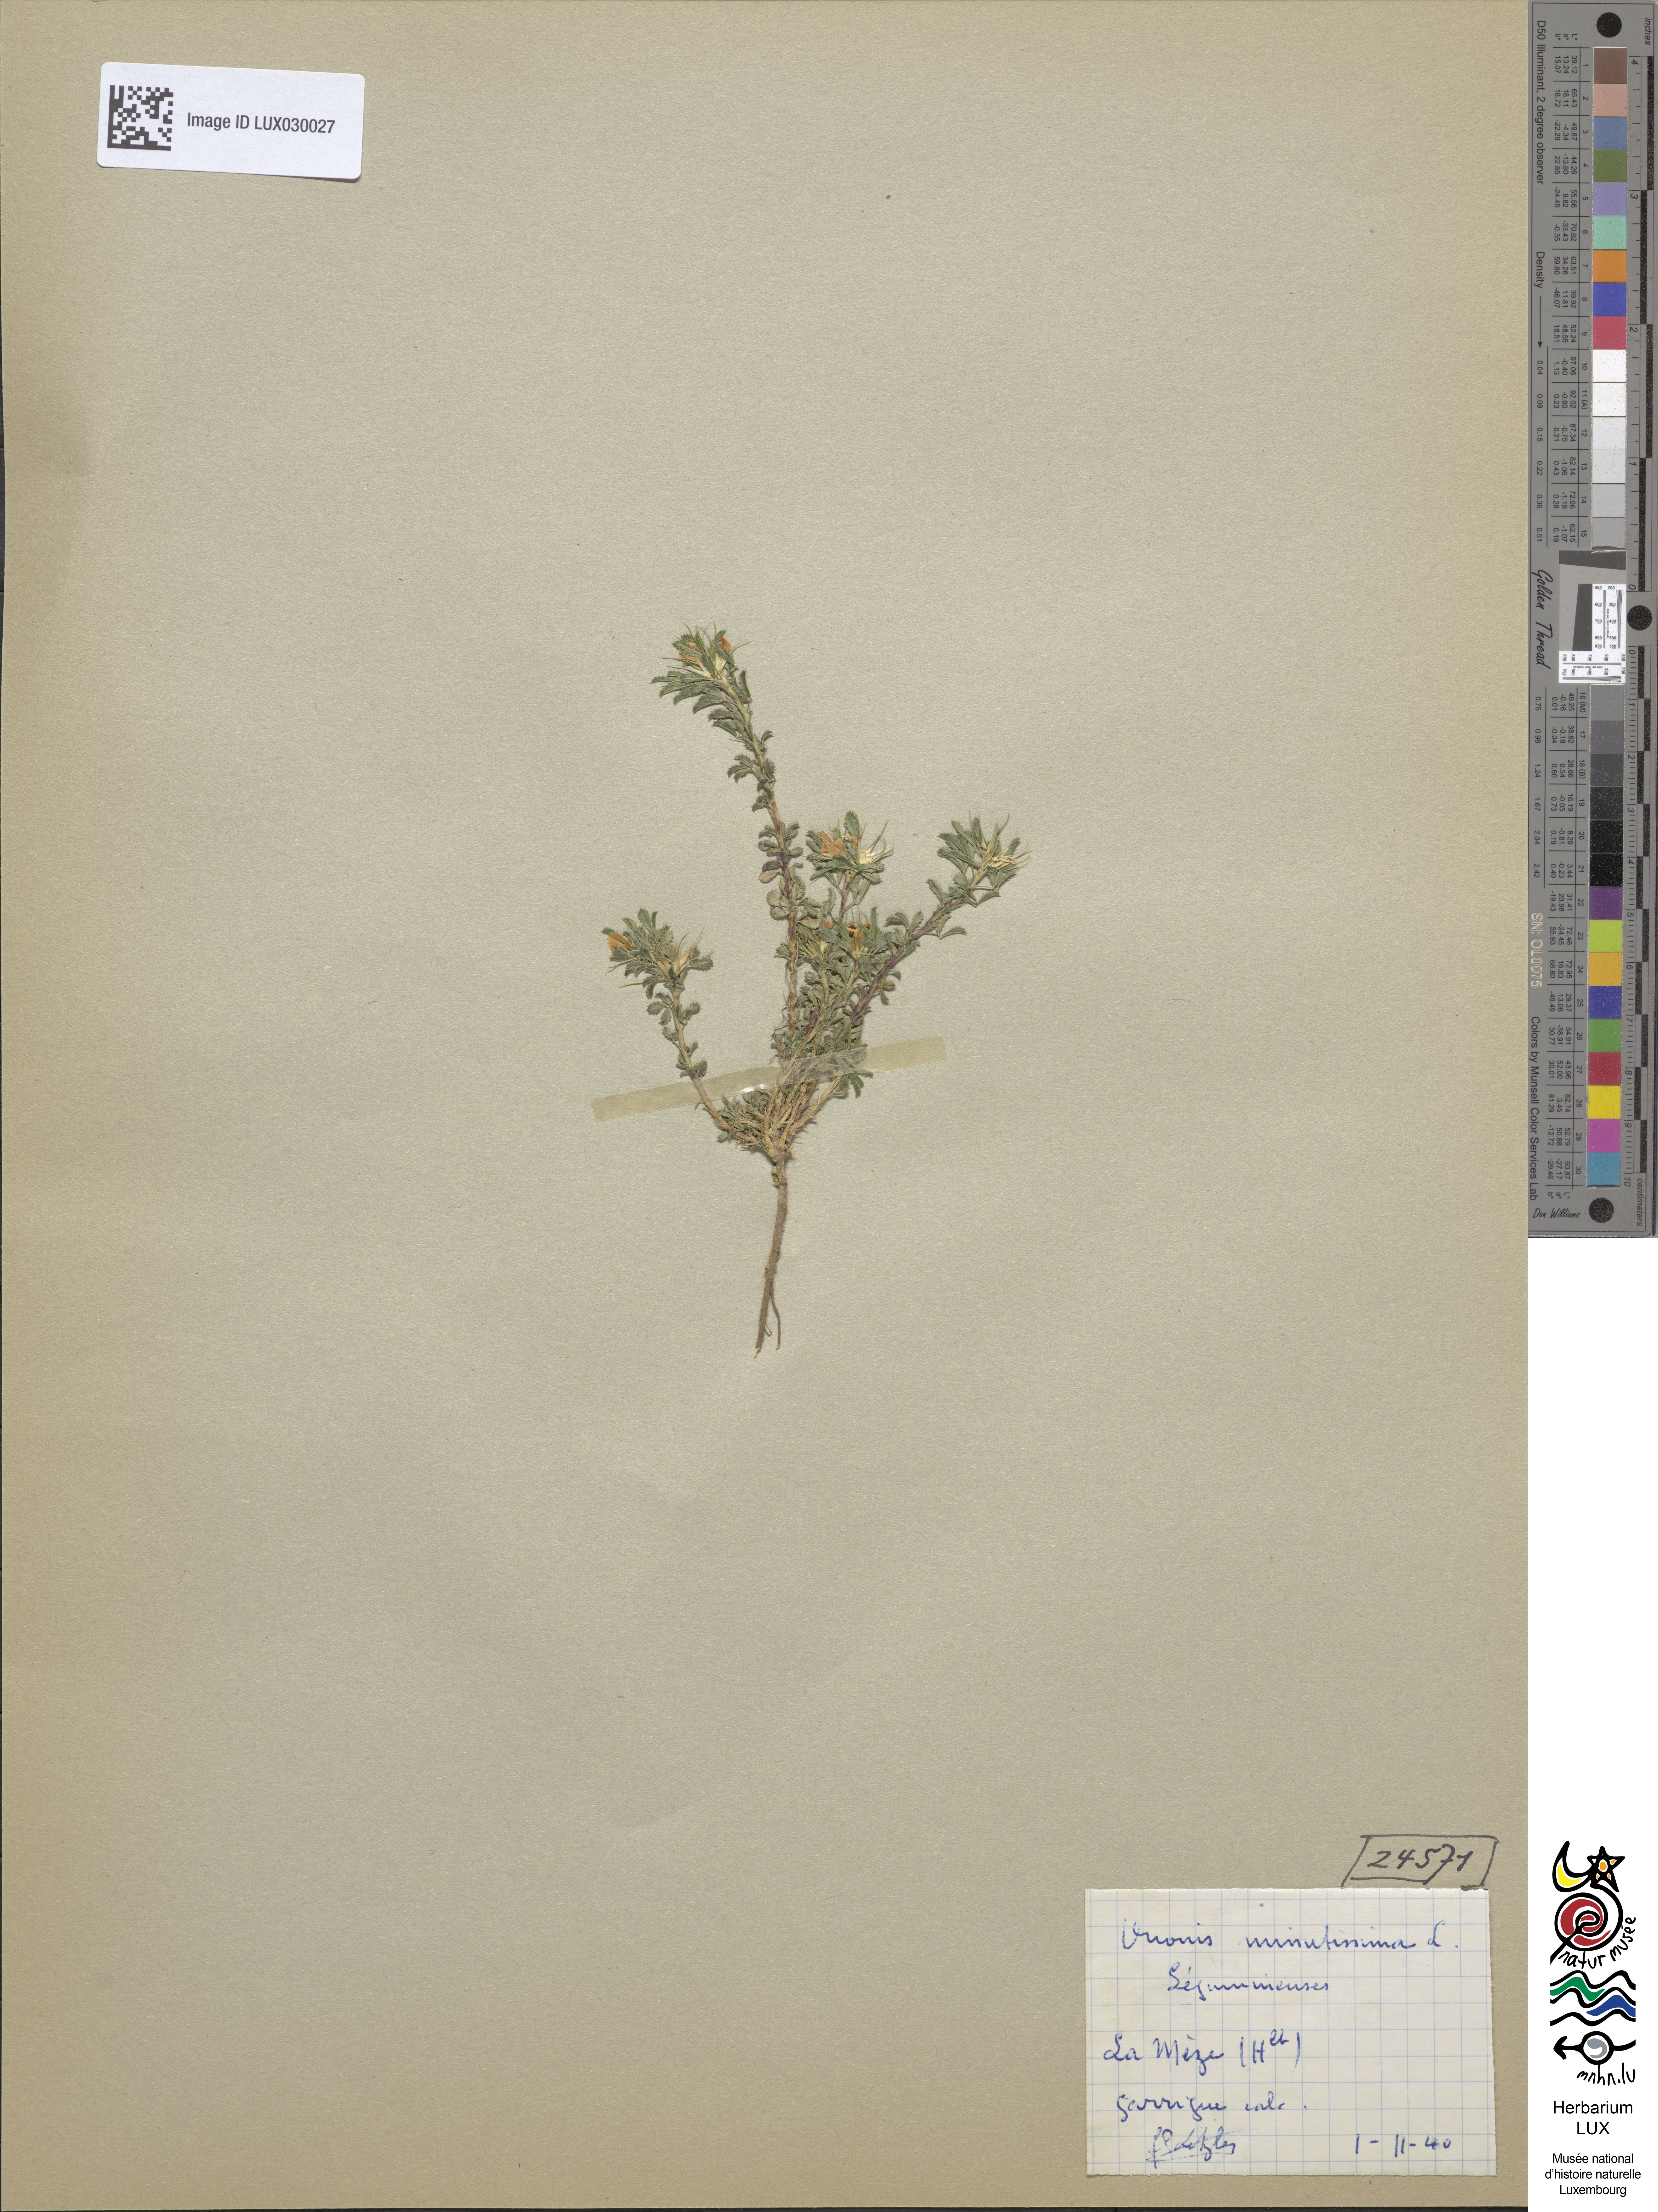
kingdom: Plantae
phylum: Tracheophyta
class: Magnoliopsida
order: Fabales
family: Fabaceae
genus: Ononis
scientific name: Ononis minutissima
